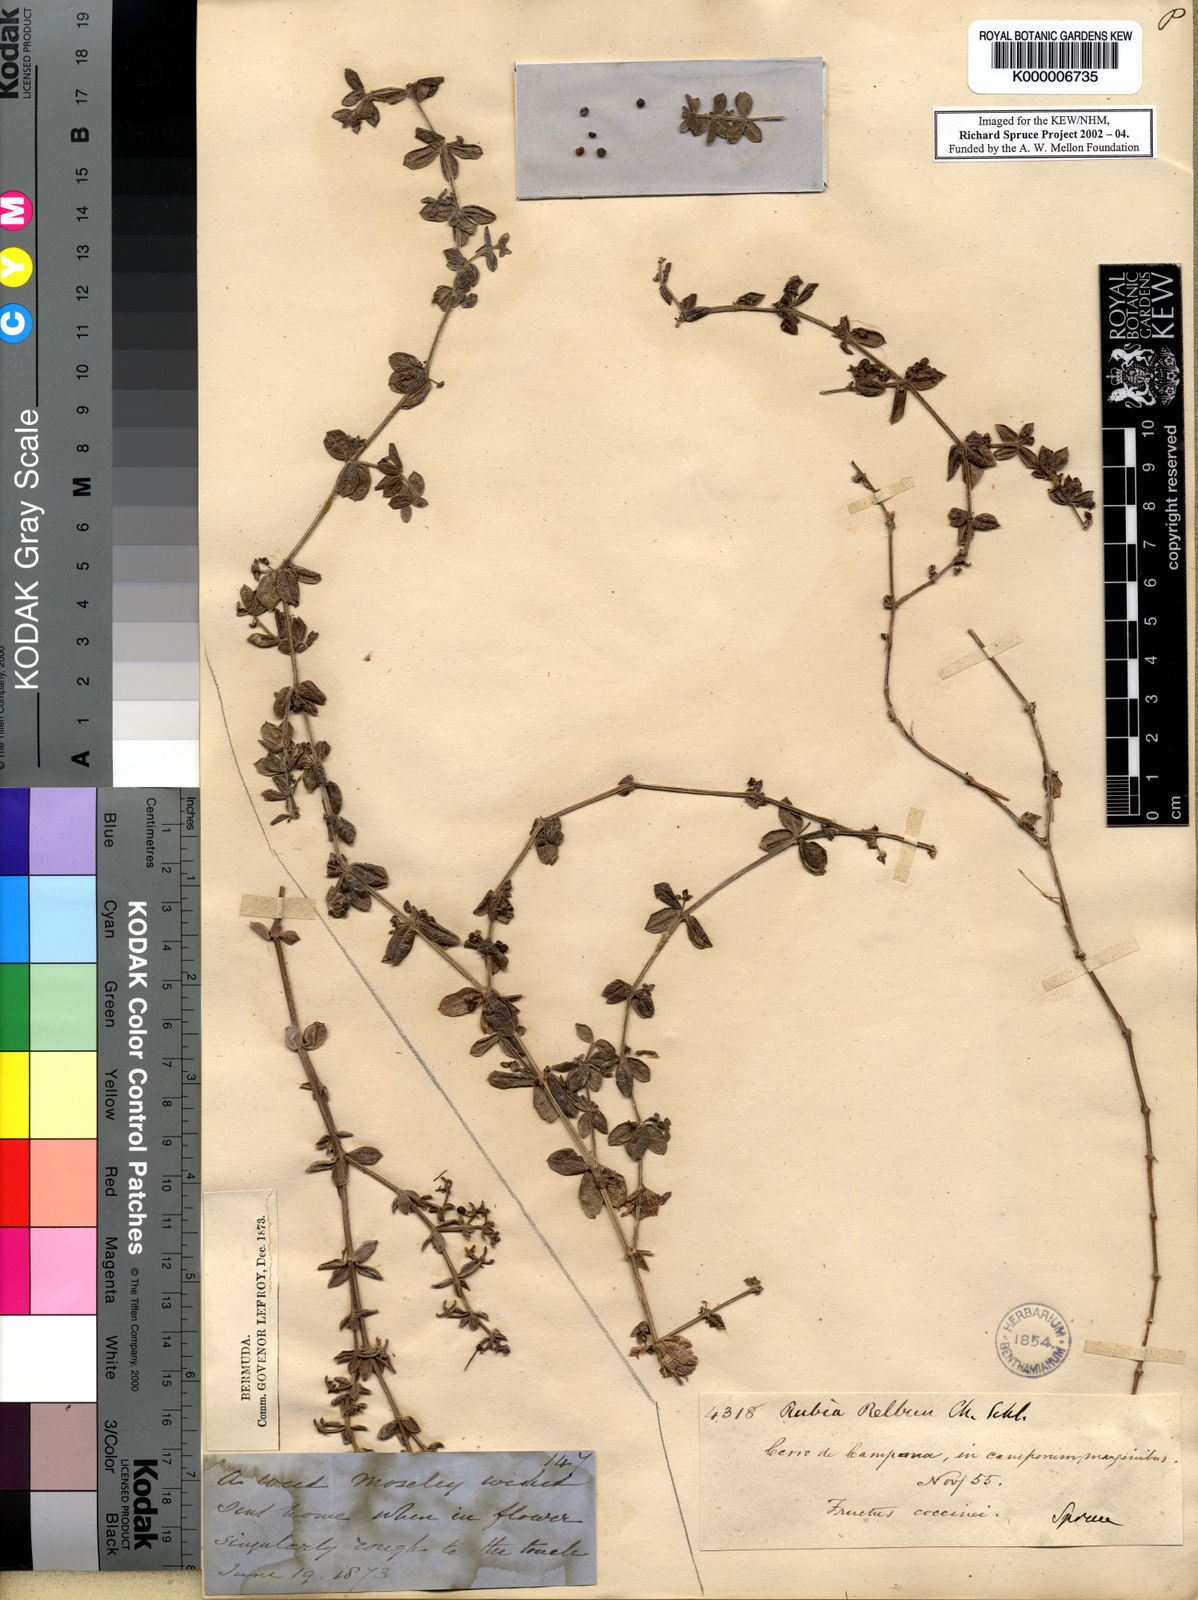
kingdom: Plantae
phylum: Tracheophyta
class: Magnoliopsida
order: Gentianales
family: Rubiaceae
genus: Galium
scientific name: Galium hypocarpium
